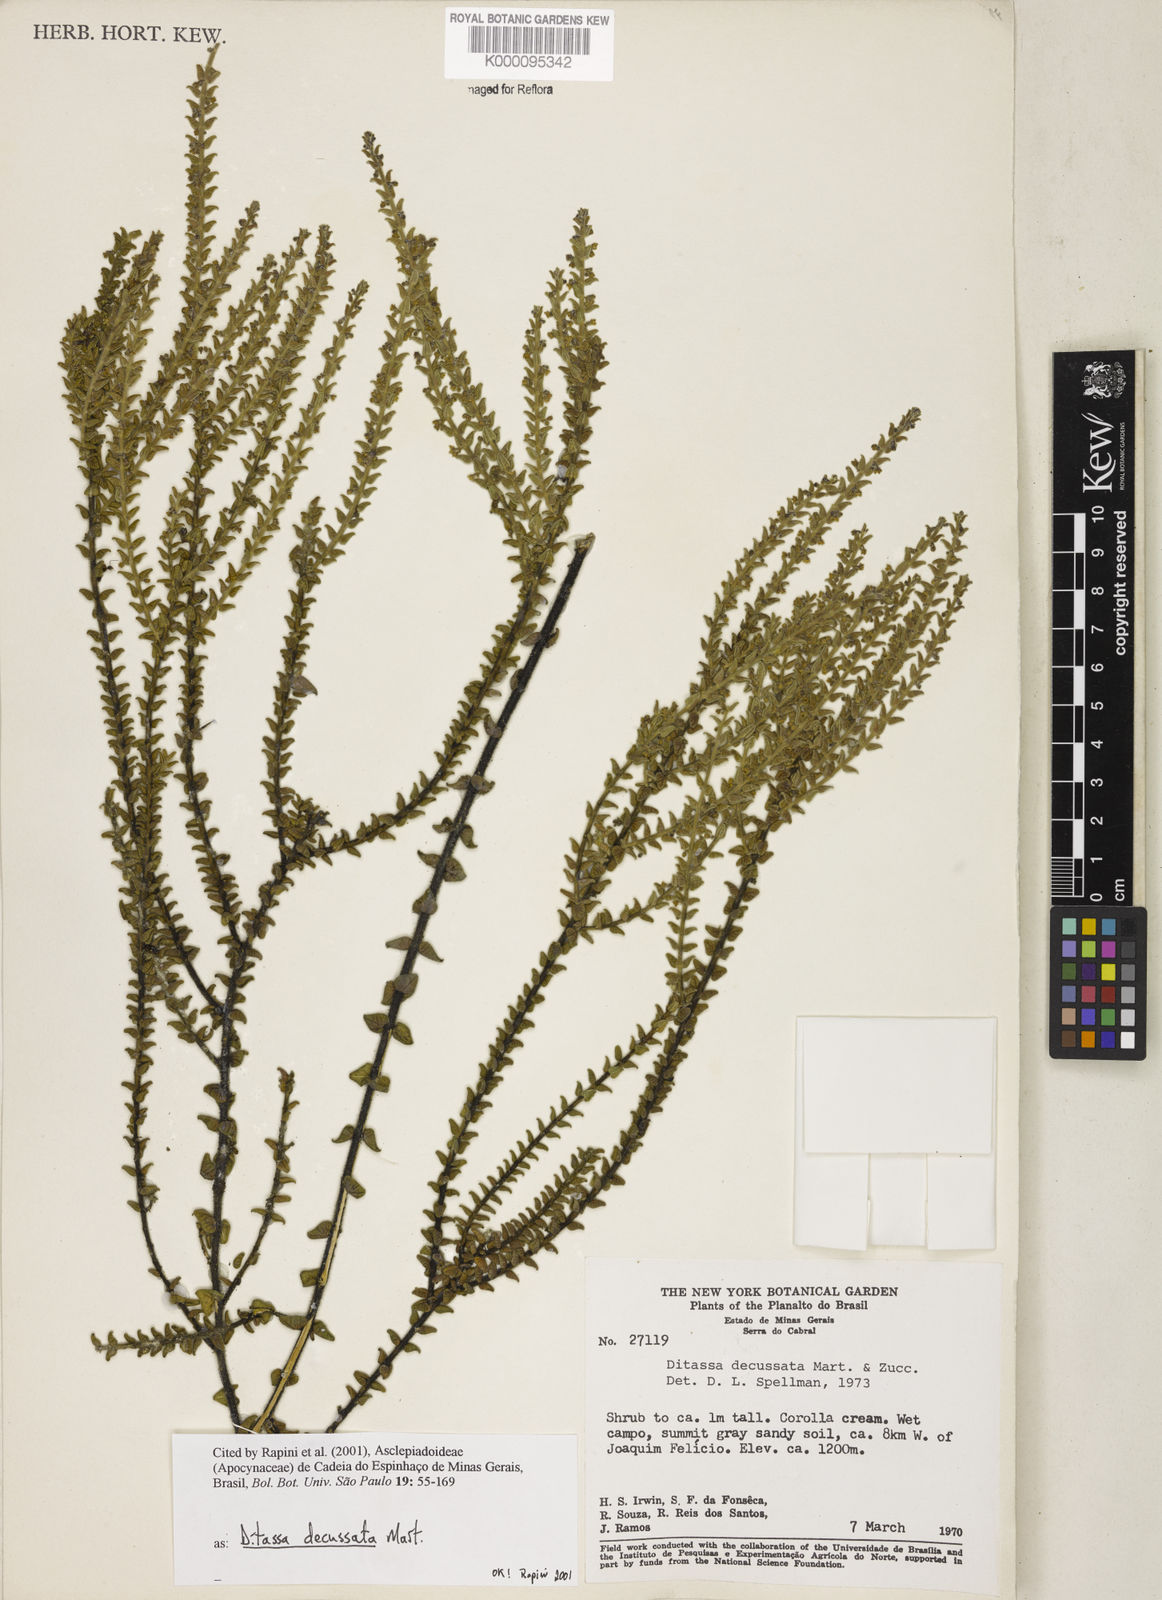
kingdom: Plantae
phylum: Tracheophyta
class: Magnoliopsida
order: Gentianales
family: Apocynaceae
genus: Minaria
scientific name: Minaria decussata
